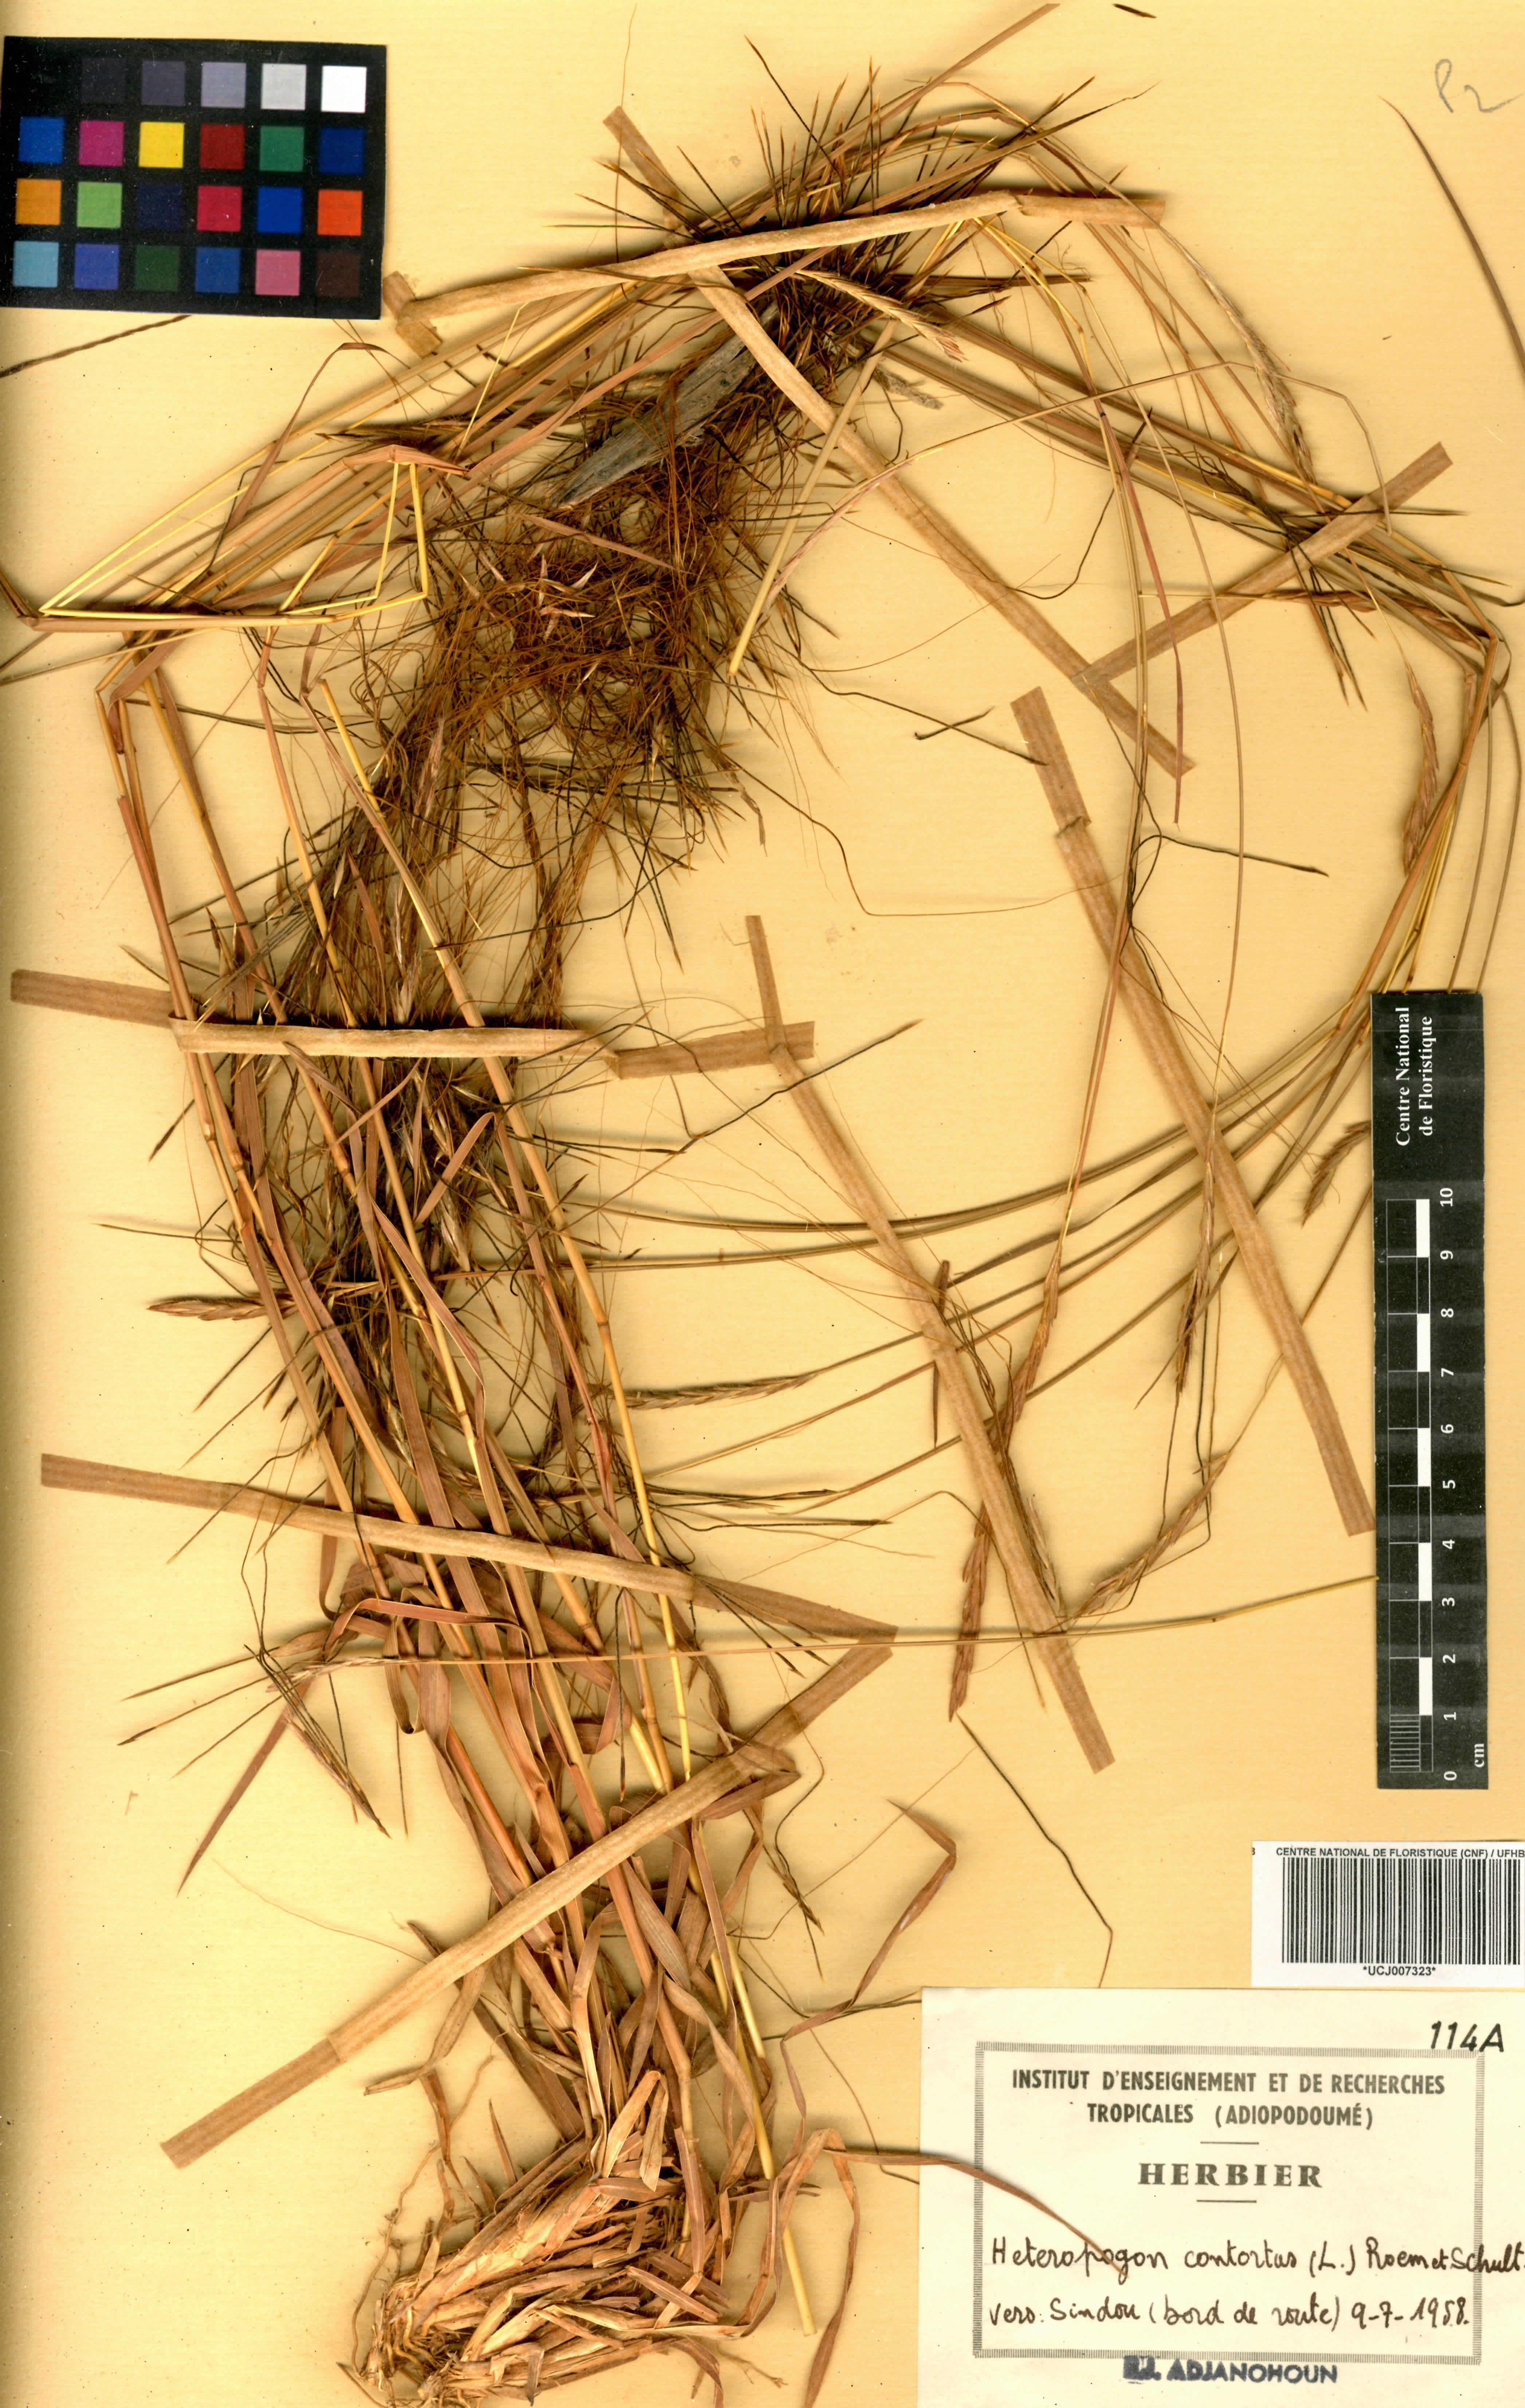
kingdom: Plantae
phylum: Tracheophyta
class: Liliopsida
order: Poales
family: Poaceae
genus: Heteropogon
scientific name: Heteropogon contortus
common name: Tanglehead
